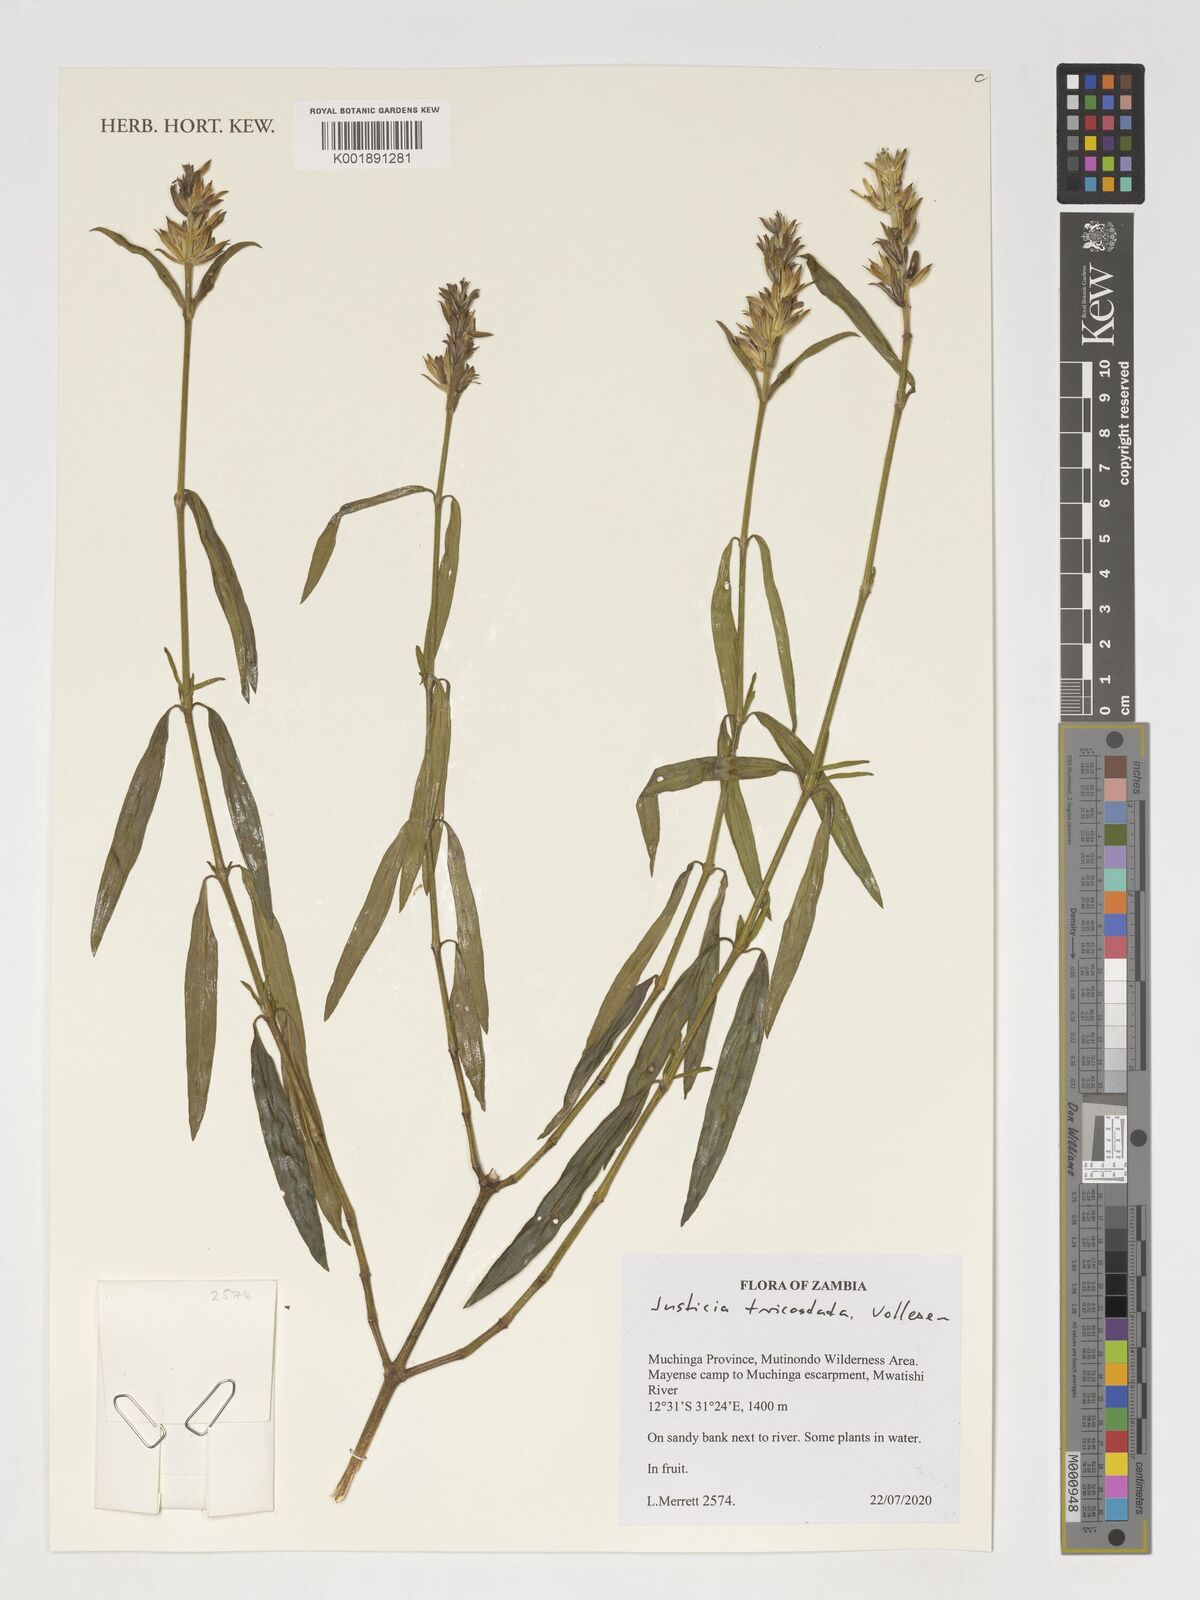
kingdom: Plantae
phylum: Tracheophyta
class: Magnoliopsida
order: Lamiales
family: Acanthaceae
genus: Justicia
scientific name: Justicia
